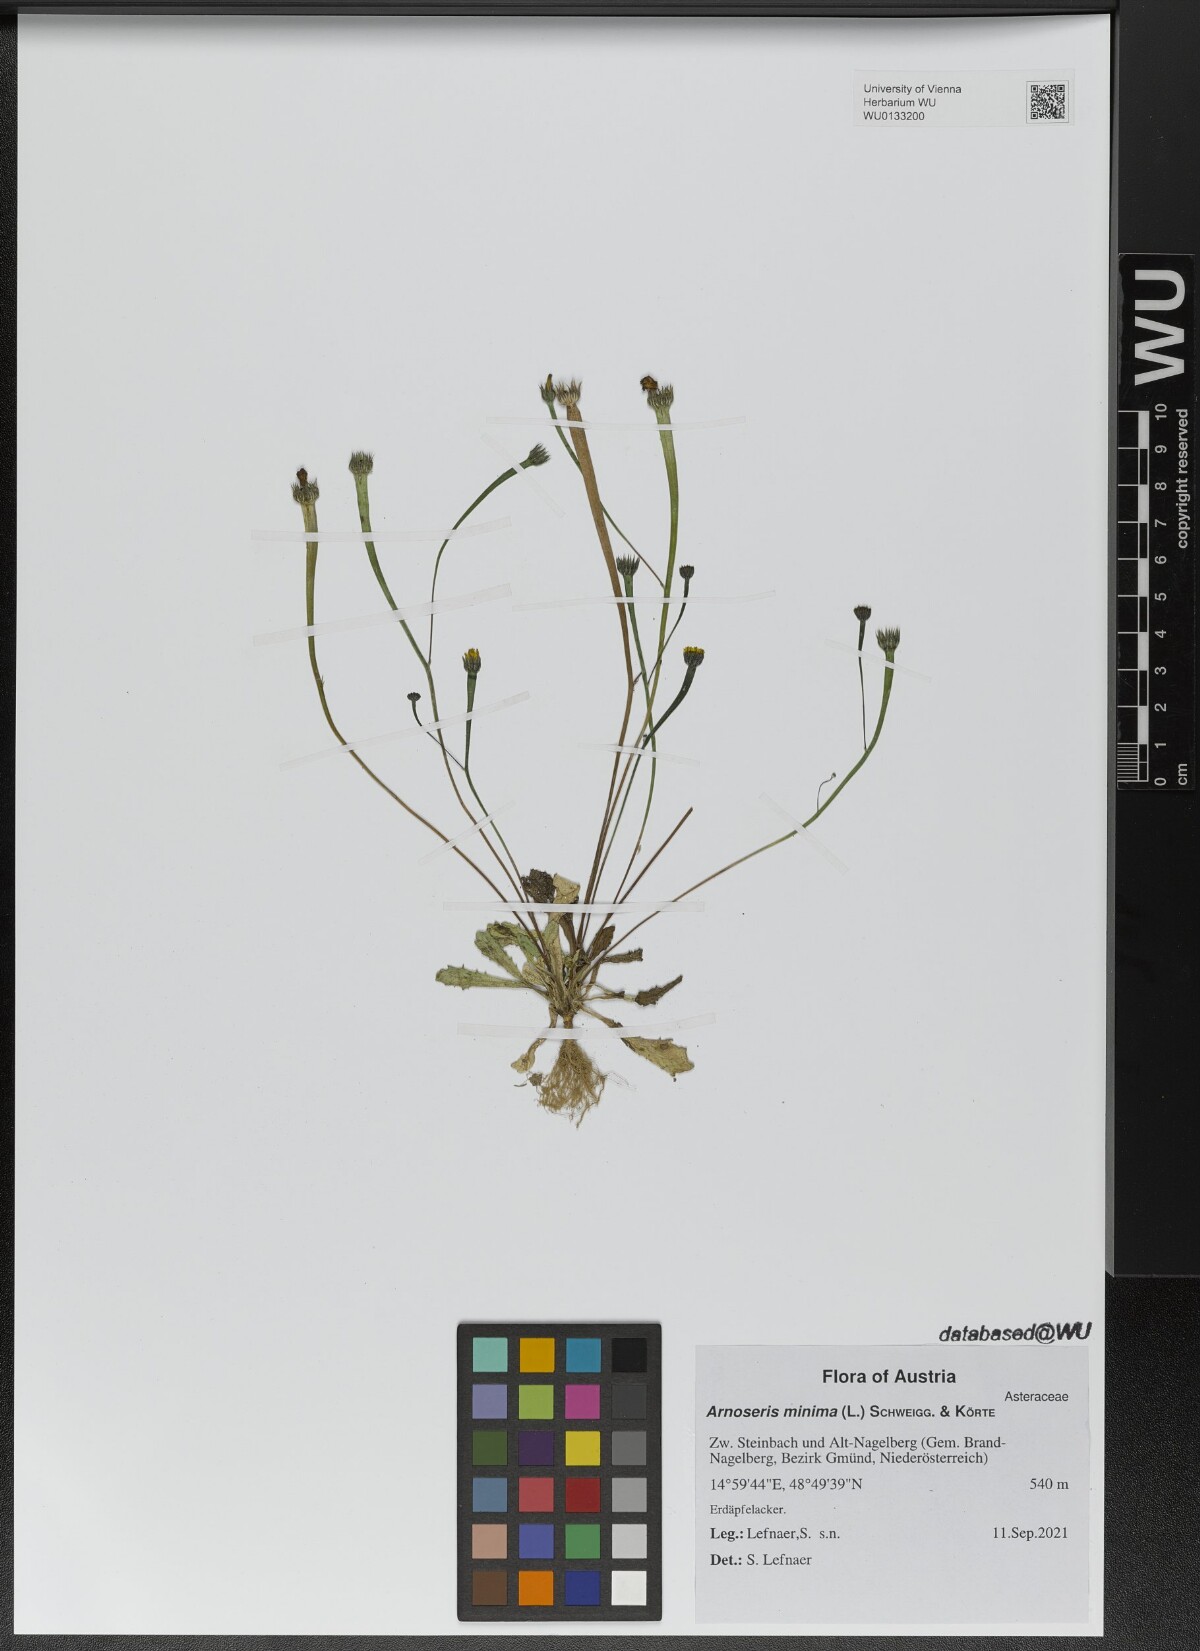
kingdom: Plantae
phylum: Tracheophyta
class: Magnoliopsida
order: Asterales
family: Asteraceae
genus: Arnoseris
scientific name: Arnoseris minima
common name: Lamb's succory
